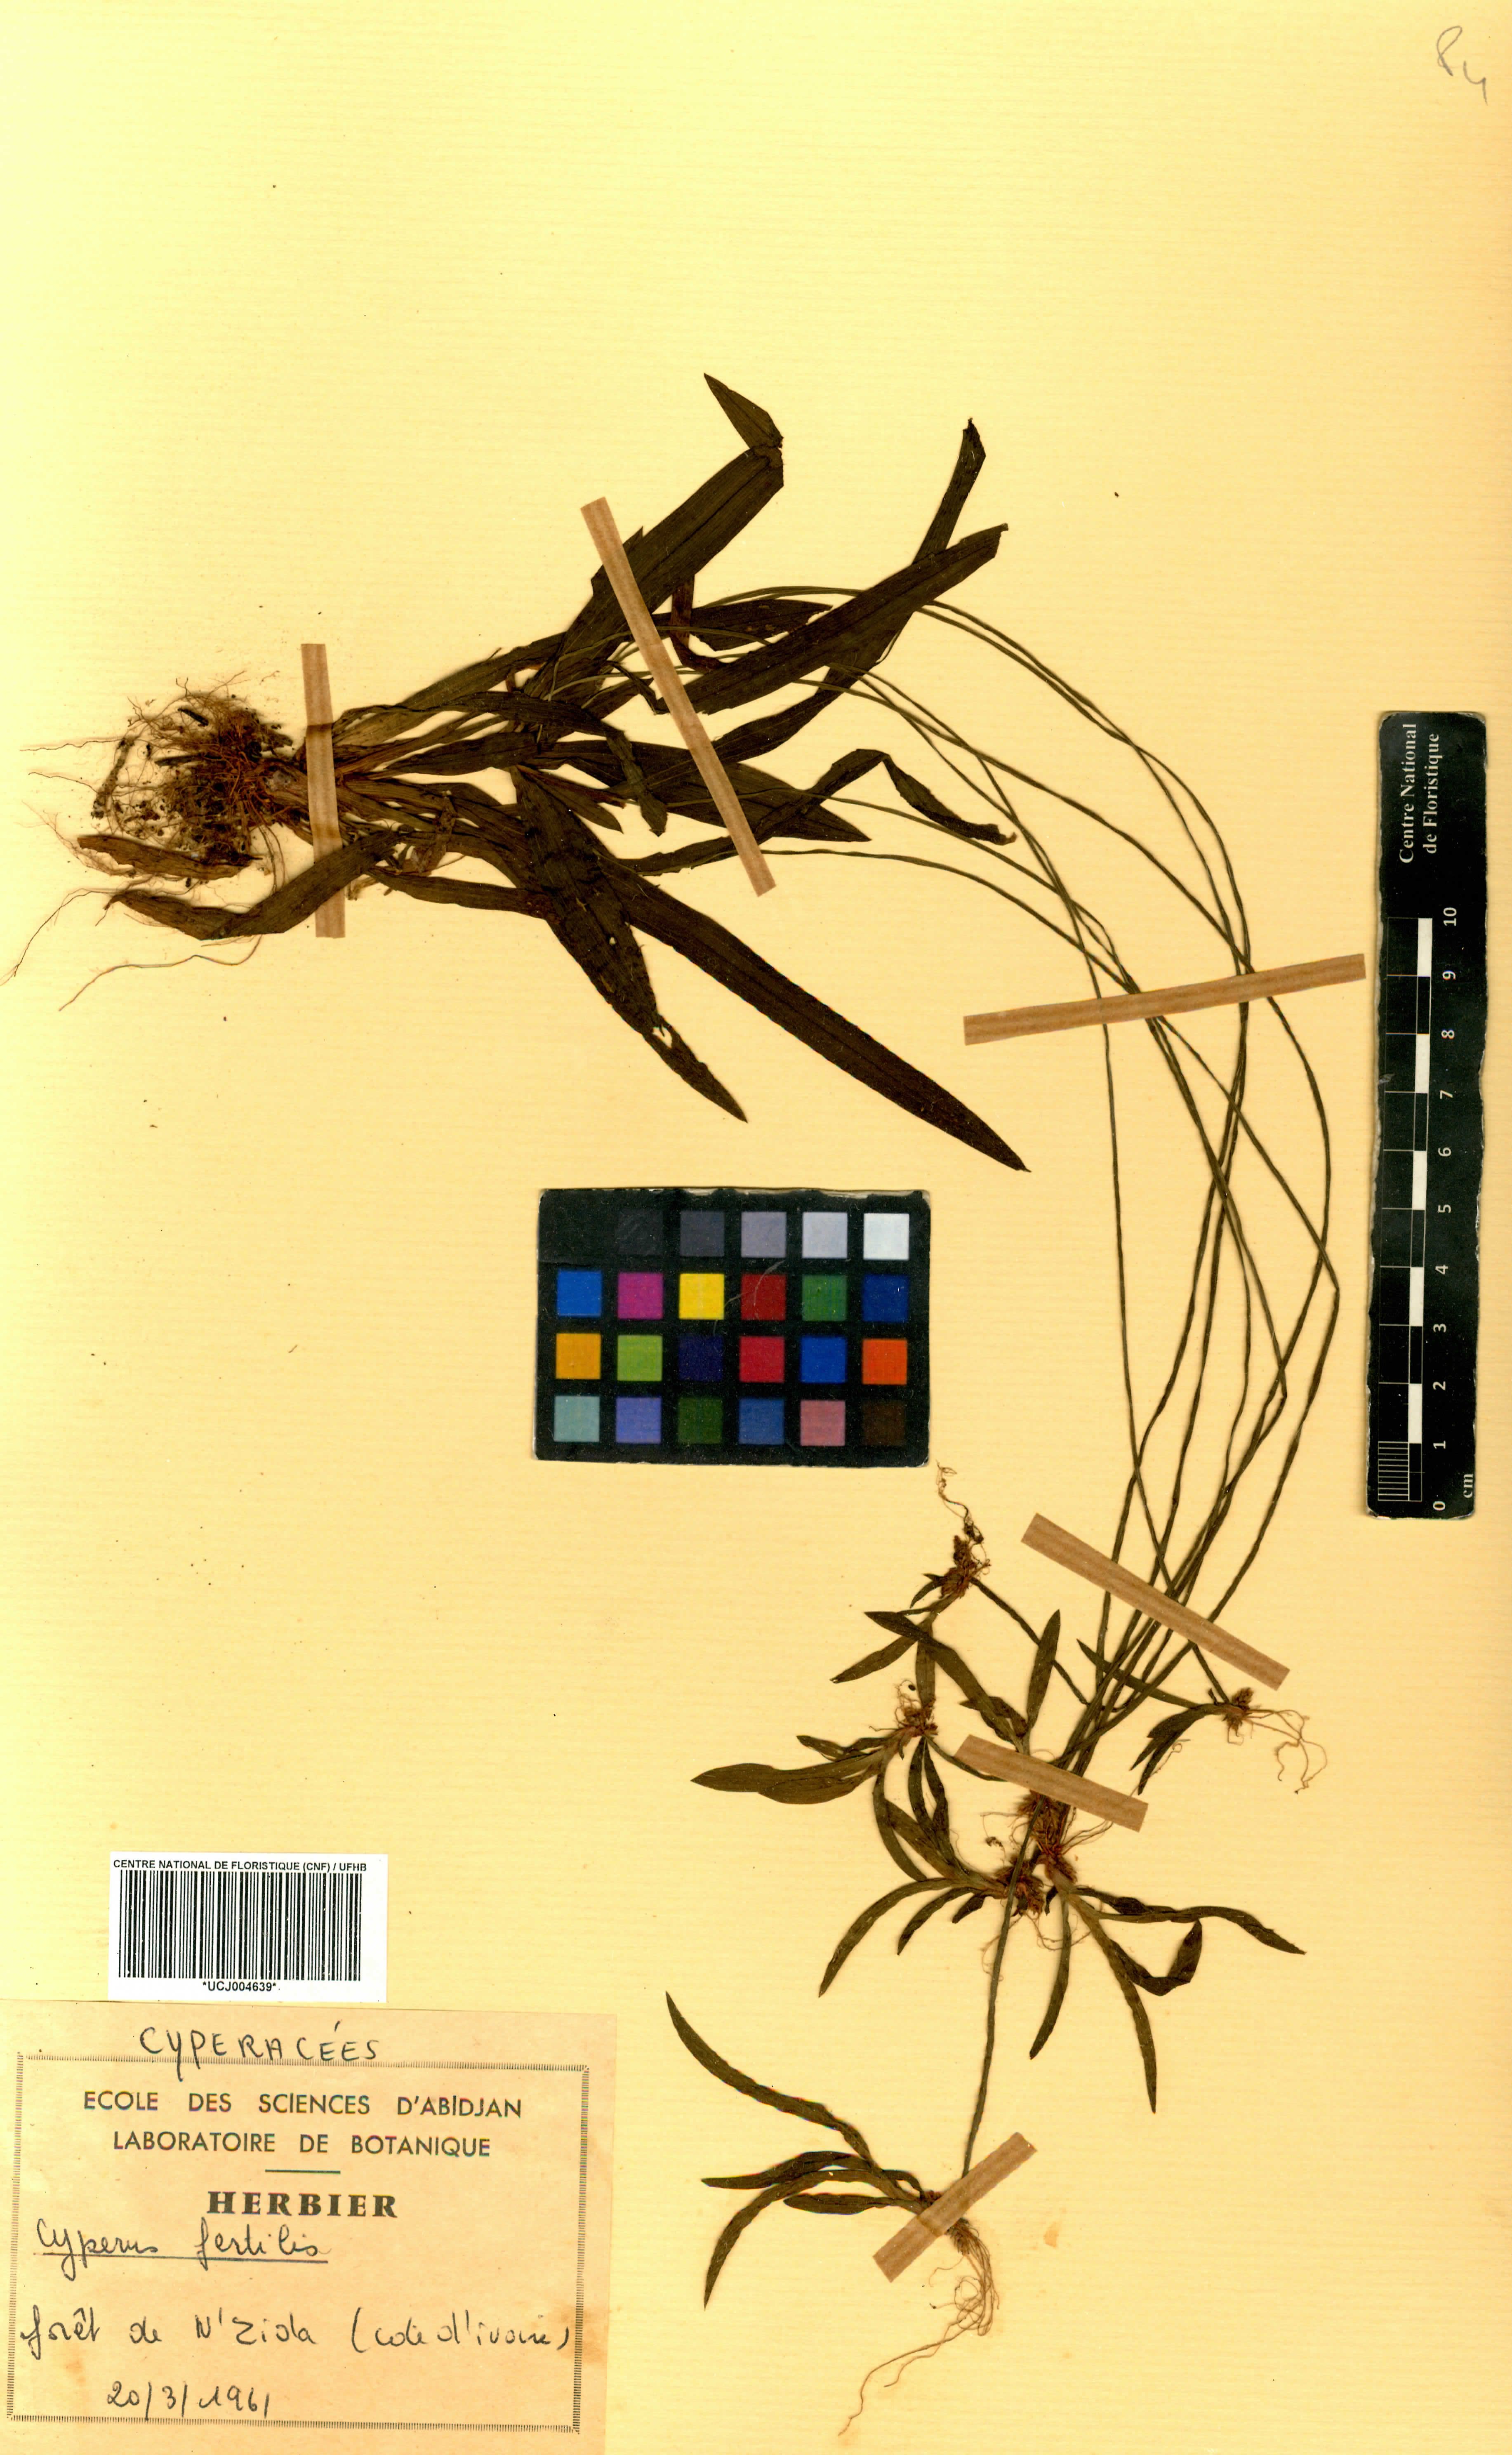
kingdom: Plantae
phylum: Tracheophyta
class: Liliopsida
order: Poales
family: Cyperaceae
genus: Cyperus
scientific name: Cyperus fertilis
